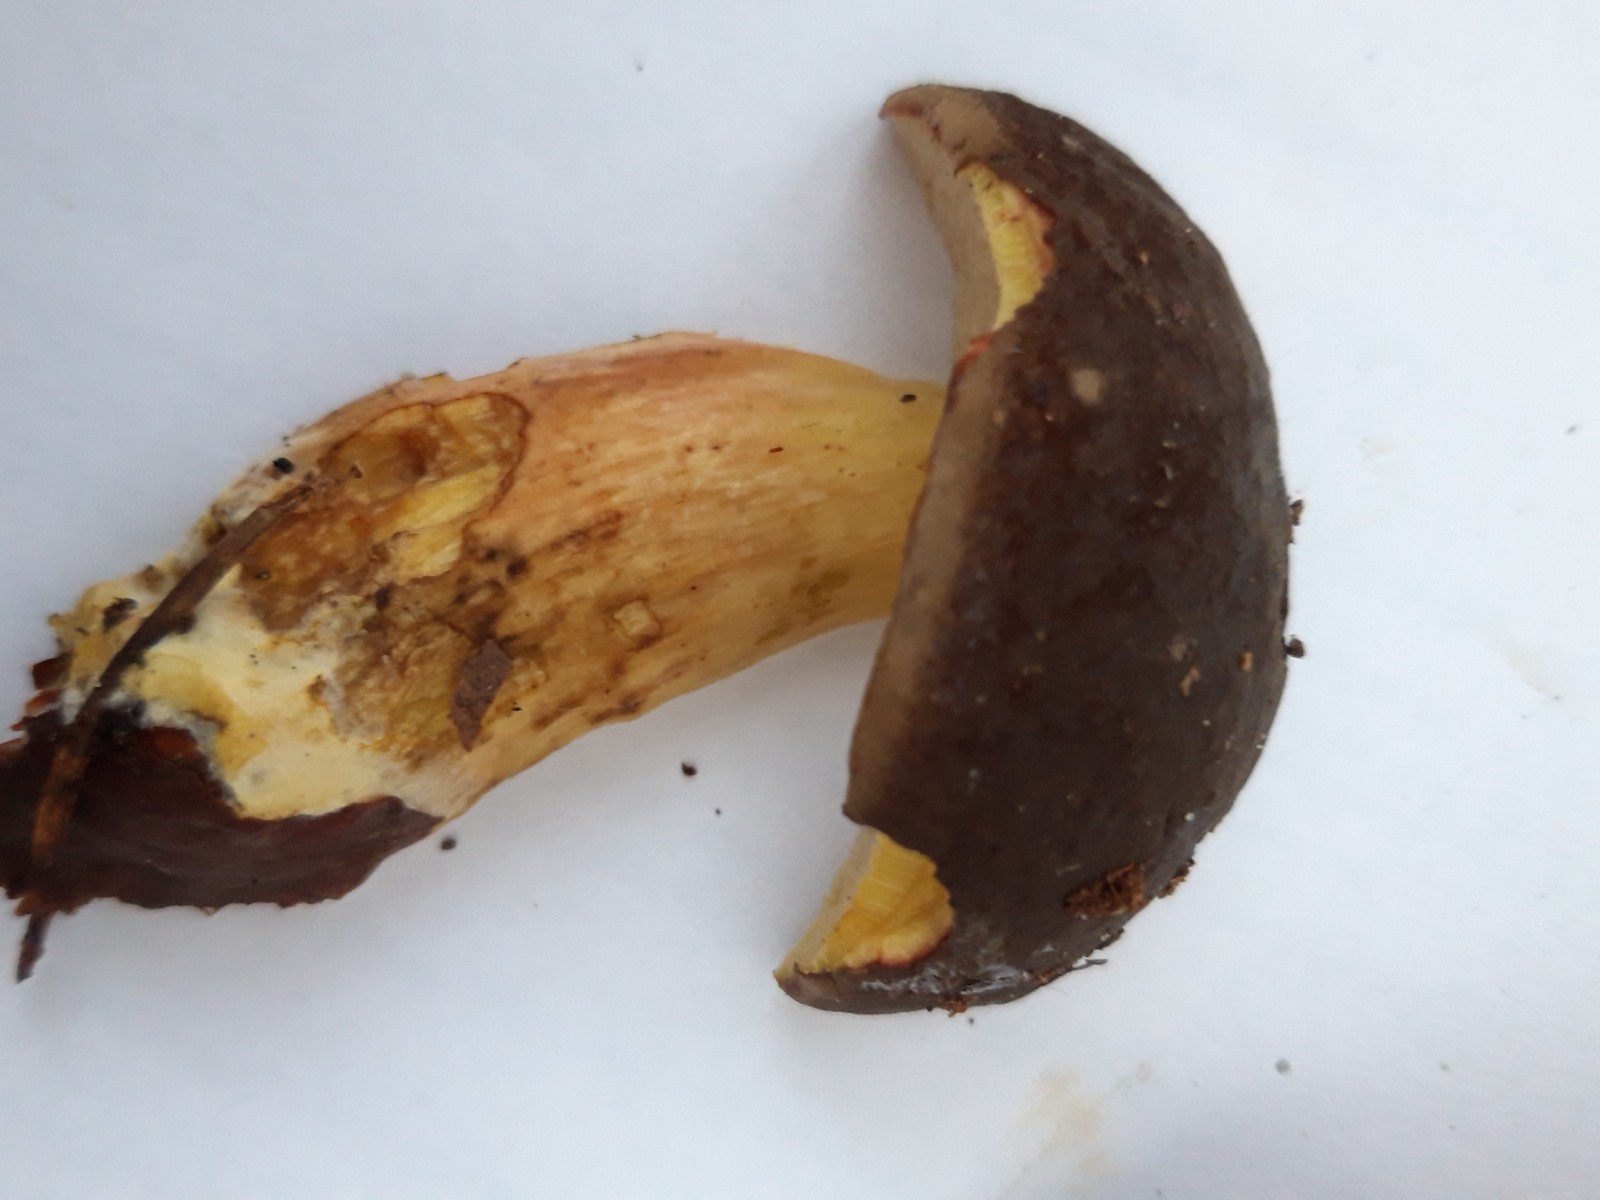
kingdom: Fungi
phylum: Basidiomycota
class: Agaricomycetes
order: Boletales
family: Boletaceae
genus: Xerocomellus
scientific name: Xerocomellus pruinatus
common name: dugget rørhat
